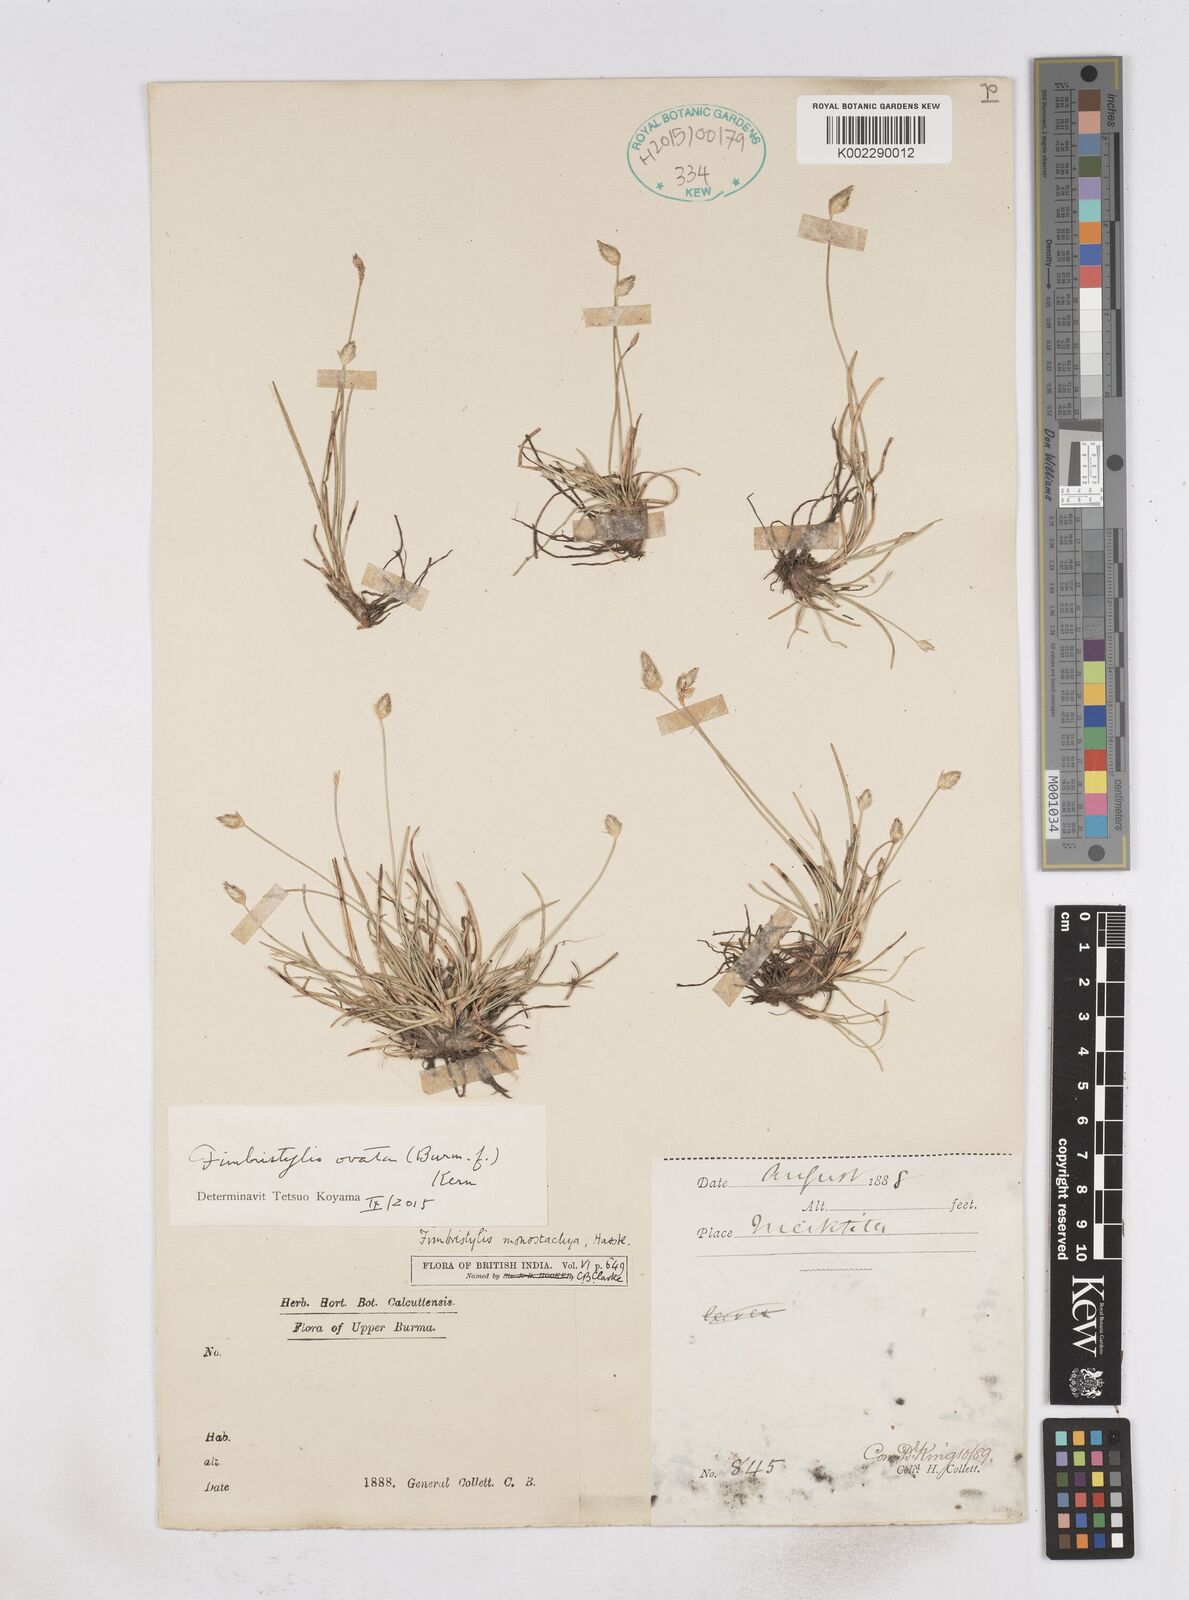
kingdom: Plantae
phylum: Tracheophyta
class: Liliopsida
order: Poales
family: Cyperaceae
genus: Abildgaardia
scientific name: Abildgaardia ovata
